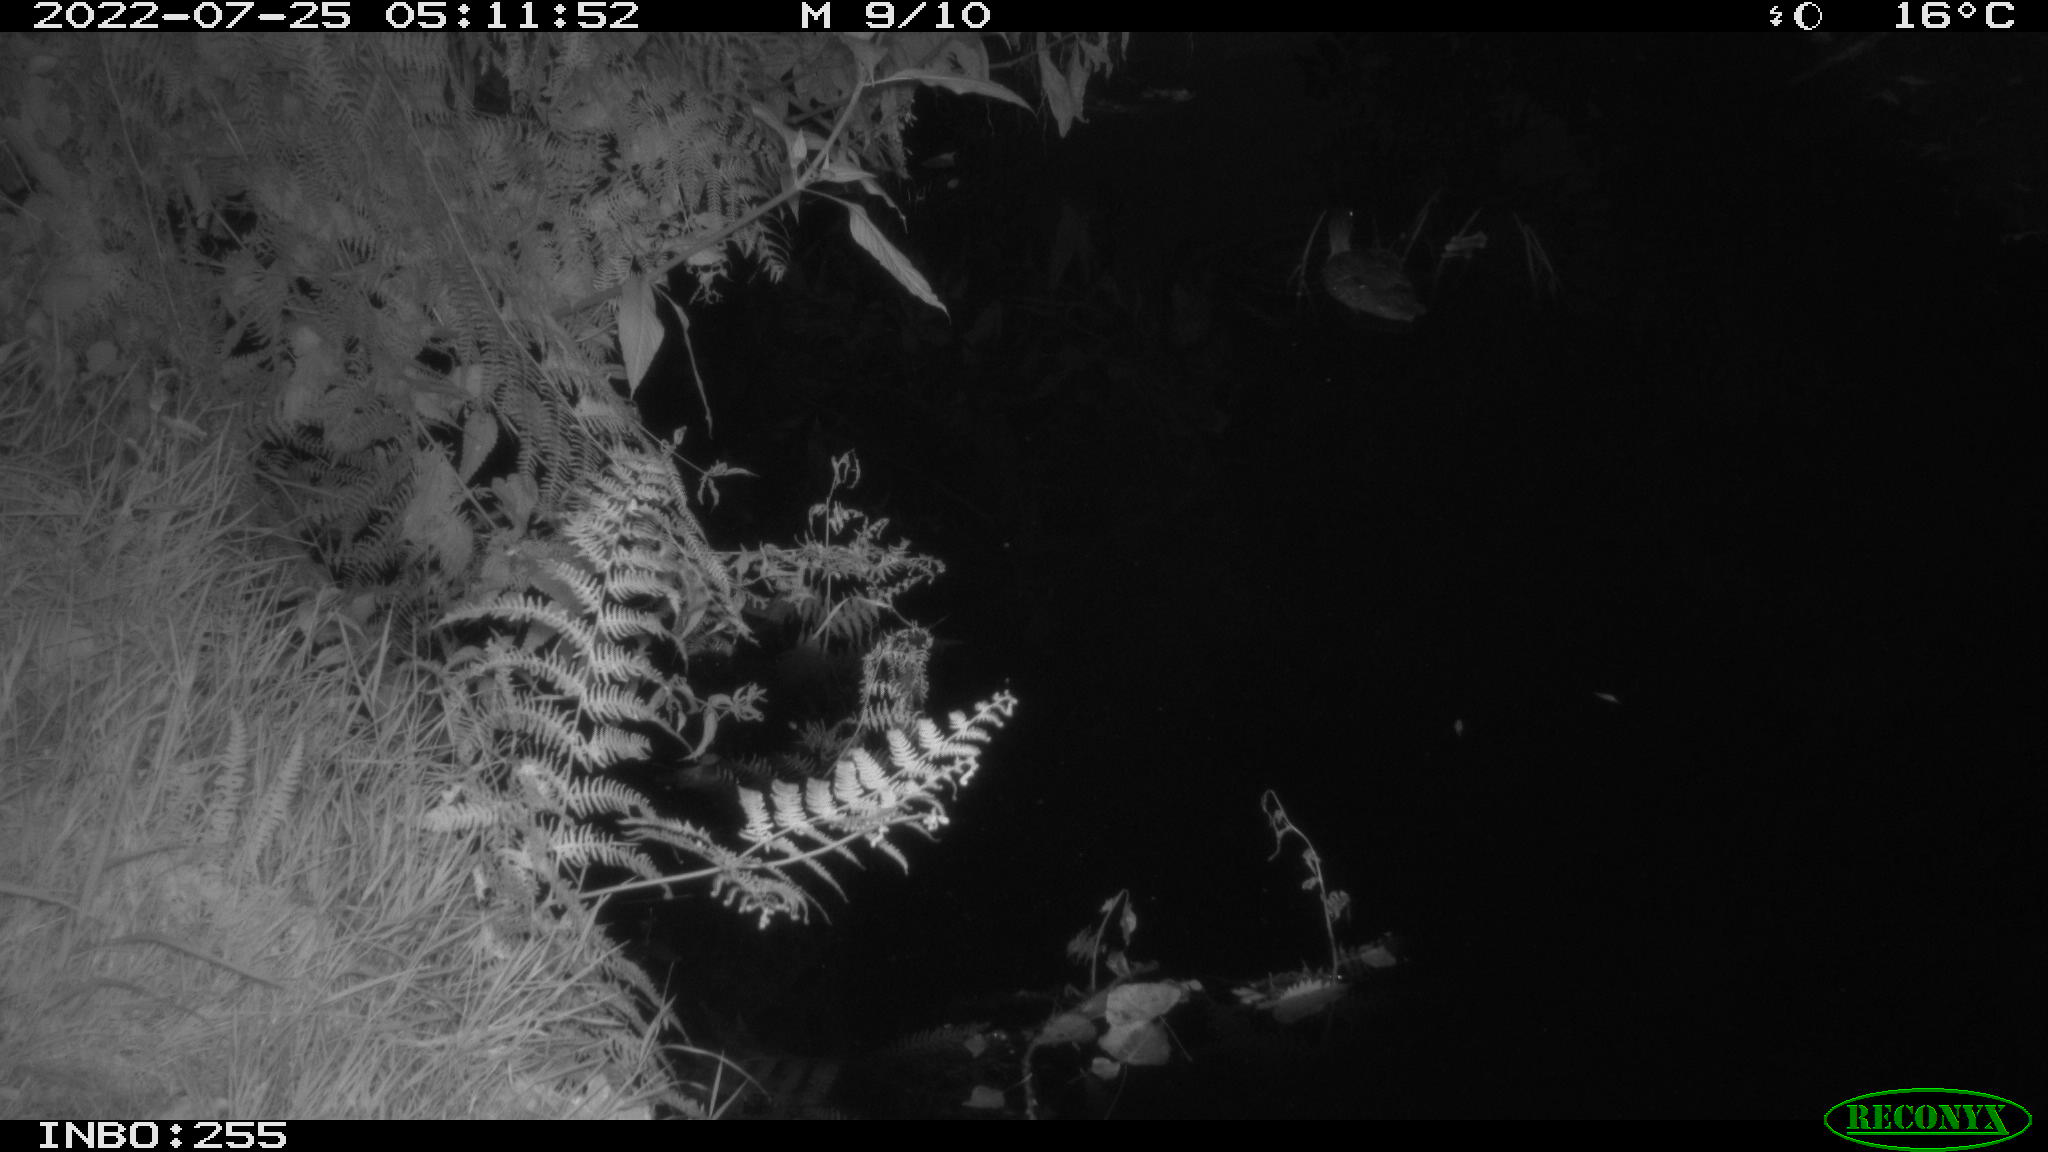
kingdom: Animalia
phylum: Chordata
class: Aves
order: Anseriformes
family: Anatidae
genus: Anas
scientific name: Anas platyrhynchos
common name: Mallard
